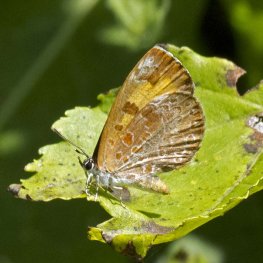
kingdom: Animalia
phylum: Arthropoda
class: Insecta
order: Lepidoptera
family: Lycaenidae
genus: Feniseca
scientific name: Feniseca tarquinius
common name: Harvester
